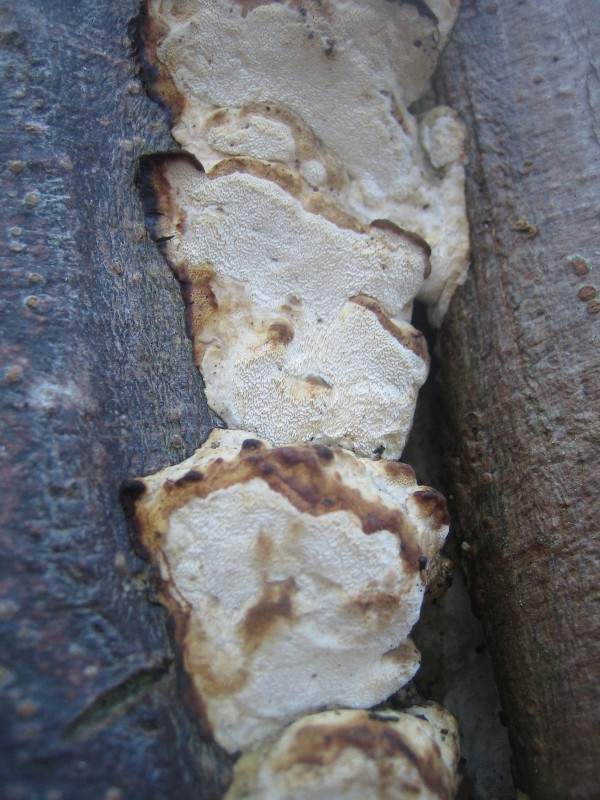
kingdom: Fungi
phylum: Basidiomycota
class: Agaricomycetes
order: Hymenochaetales
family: Oxyporaceae
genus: Oxyporus
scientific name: Oxyporus populinus
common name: sammenvokset trylleporesvamp
